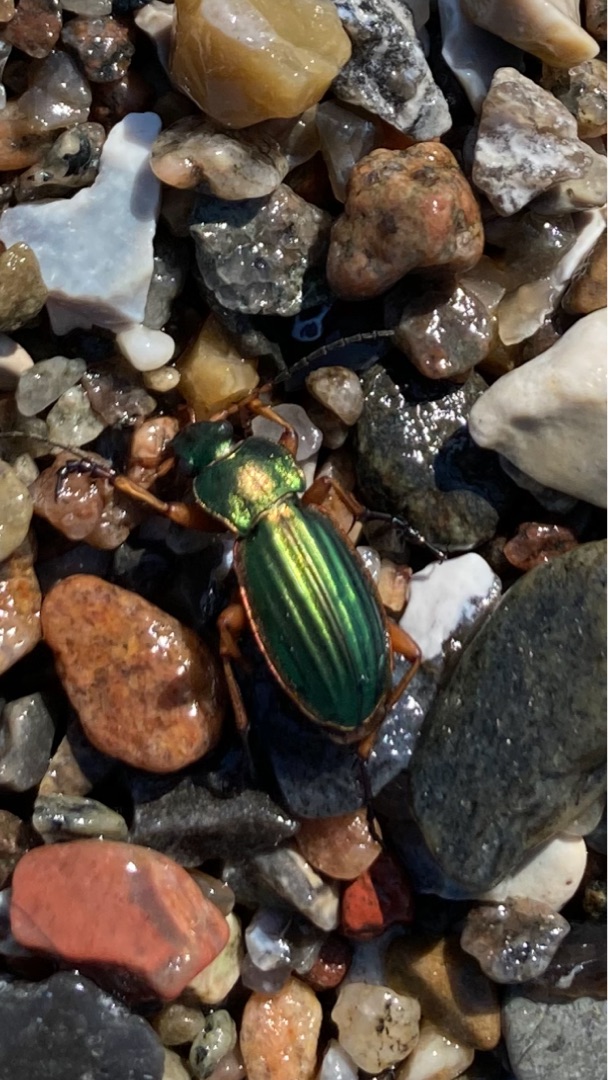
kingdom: Animalia
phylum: Arthropoda
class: Insecta
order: Coleoptera
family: Carabidae
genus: Carabus
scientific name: Carabus auratus
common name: Stor guldløber
